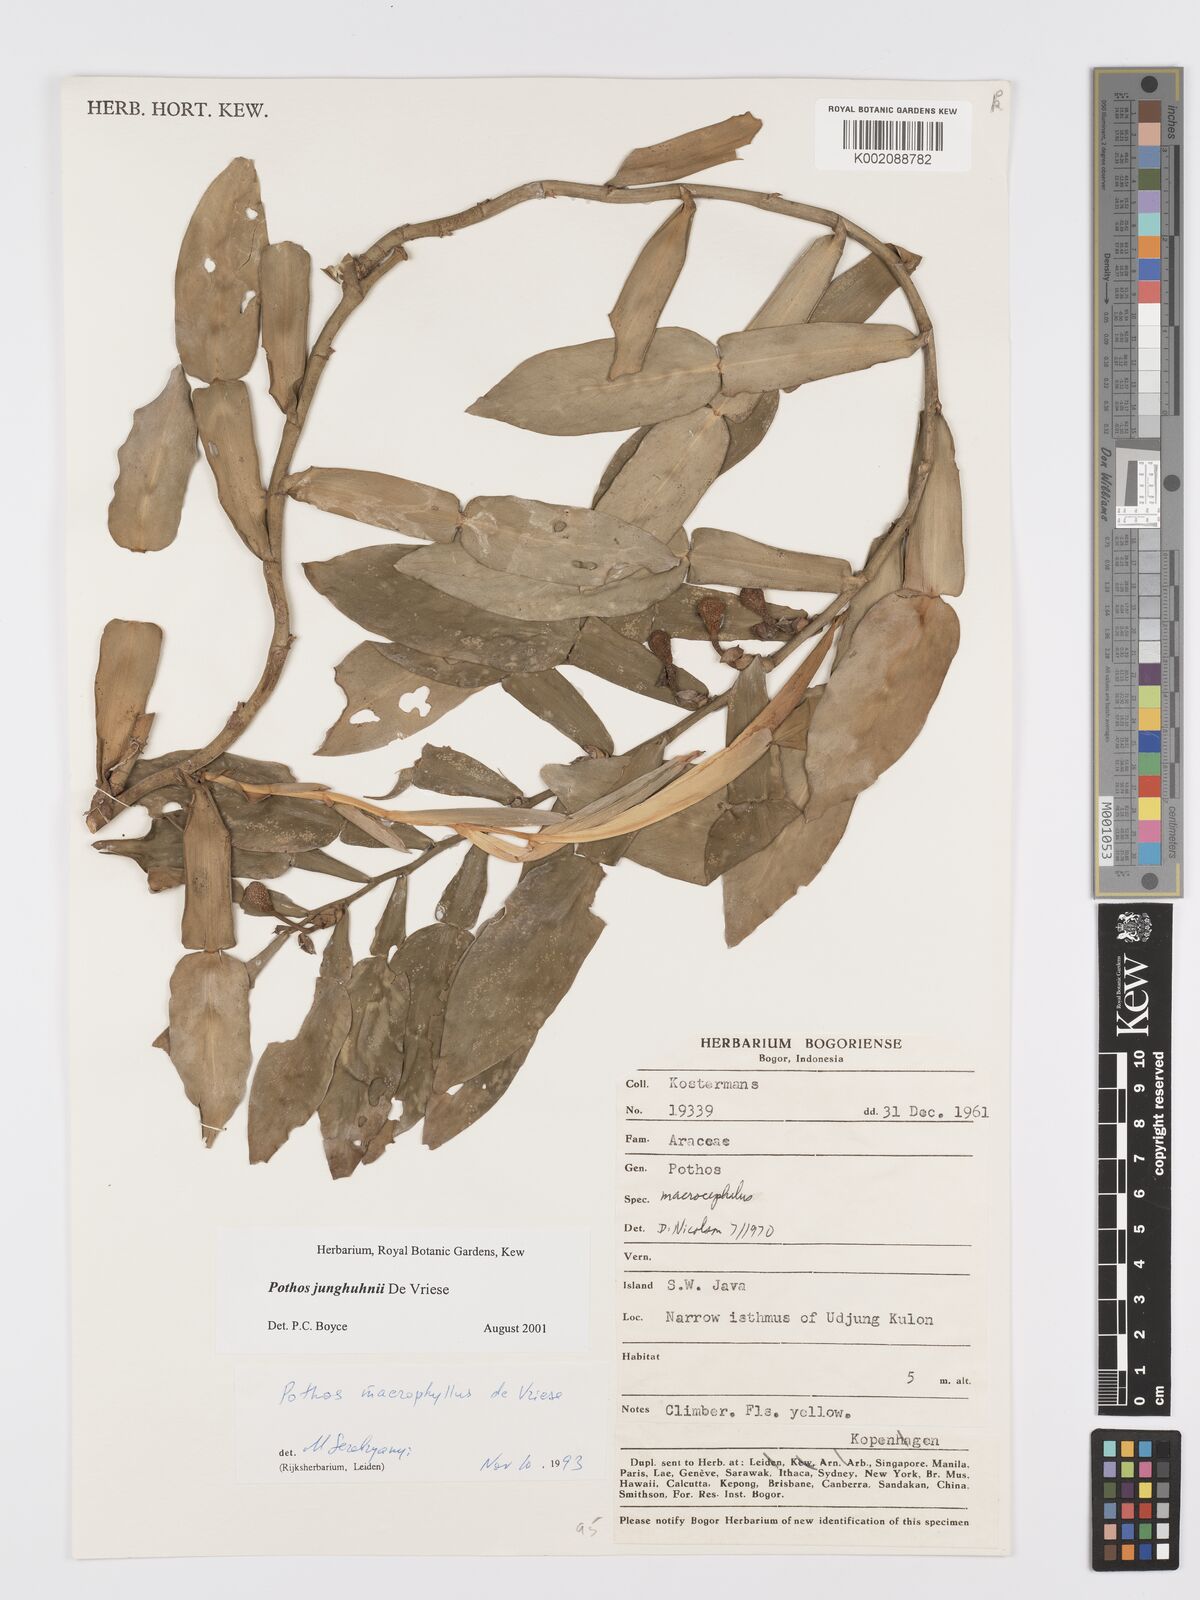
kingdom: Plantae
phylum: Tracheophyta
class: Liliopsida
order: Alismatales
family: Araceae
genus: Pothos
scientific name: Pothos junghuhnii
